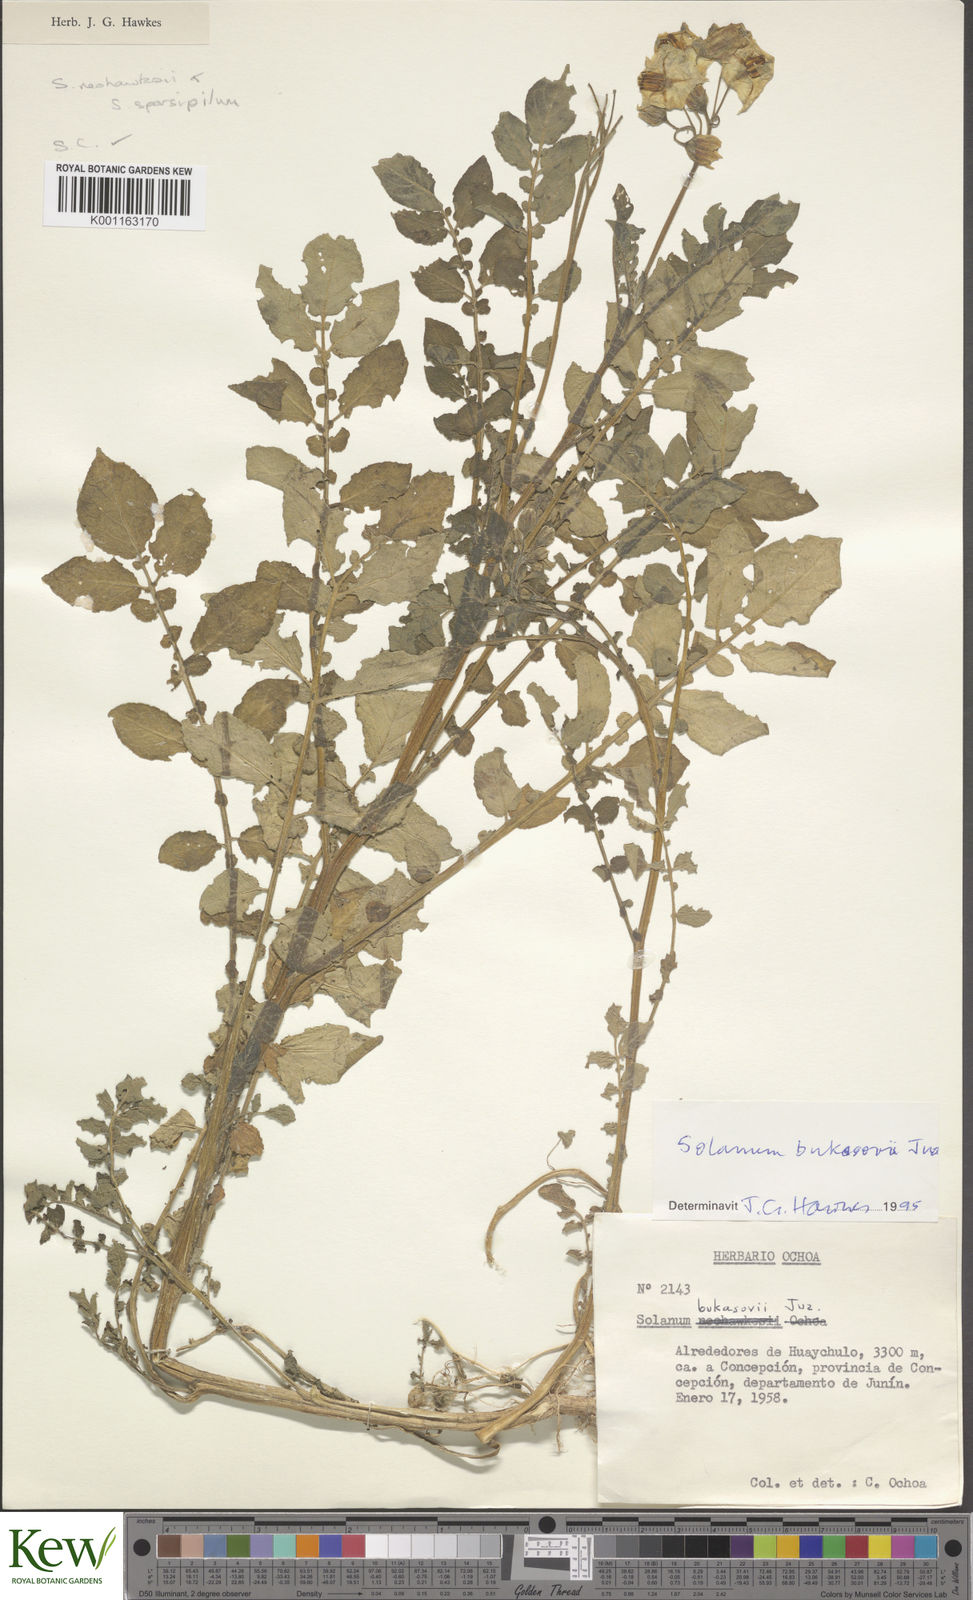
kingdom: Plantae
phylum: Tracheophyta
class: Magnoliopsida
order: Solanales
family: Solanaceae
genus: Solanum
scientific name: Solanum candolleanum
